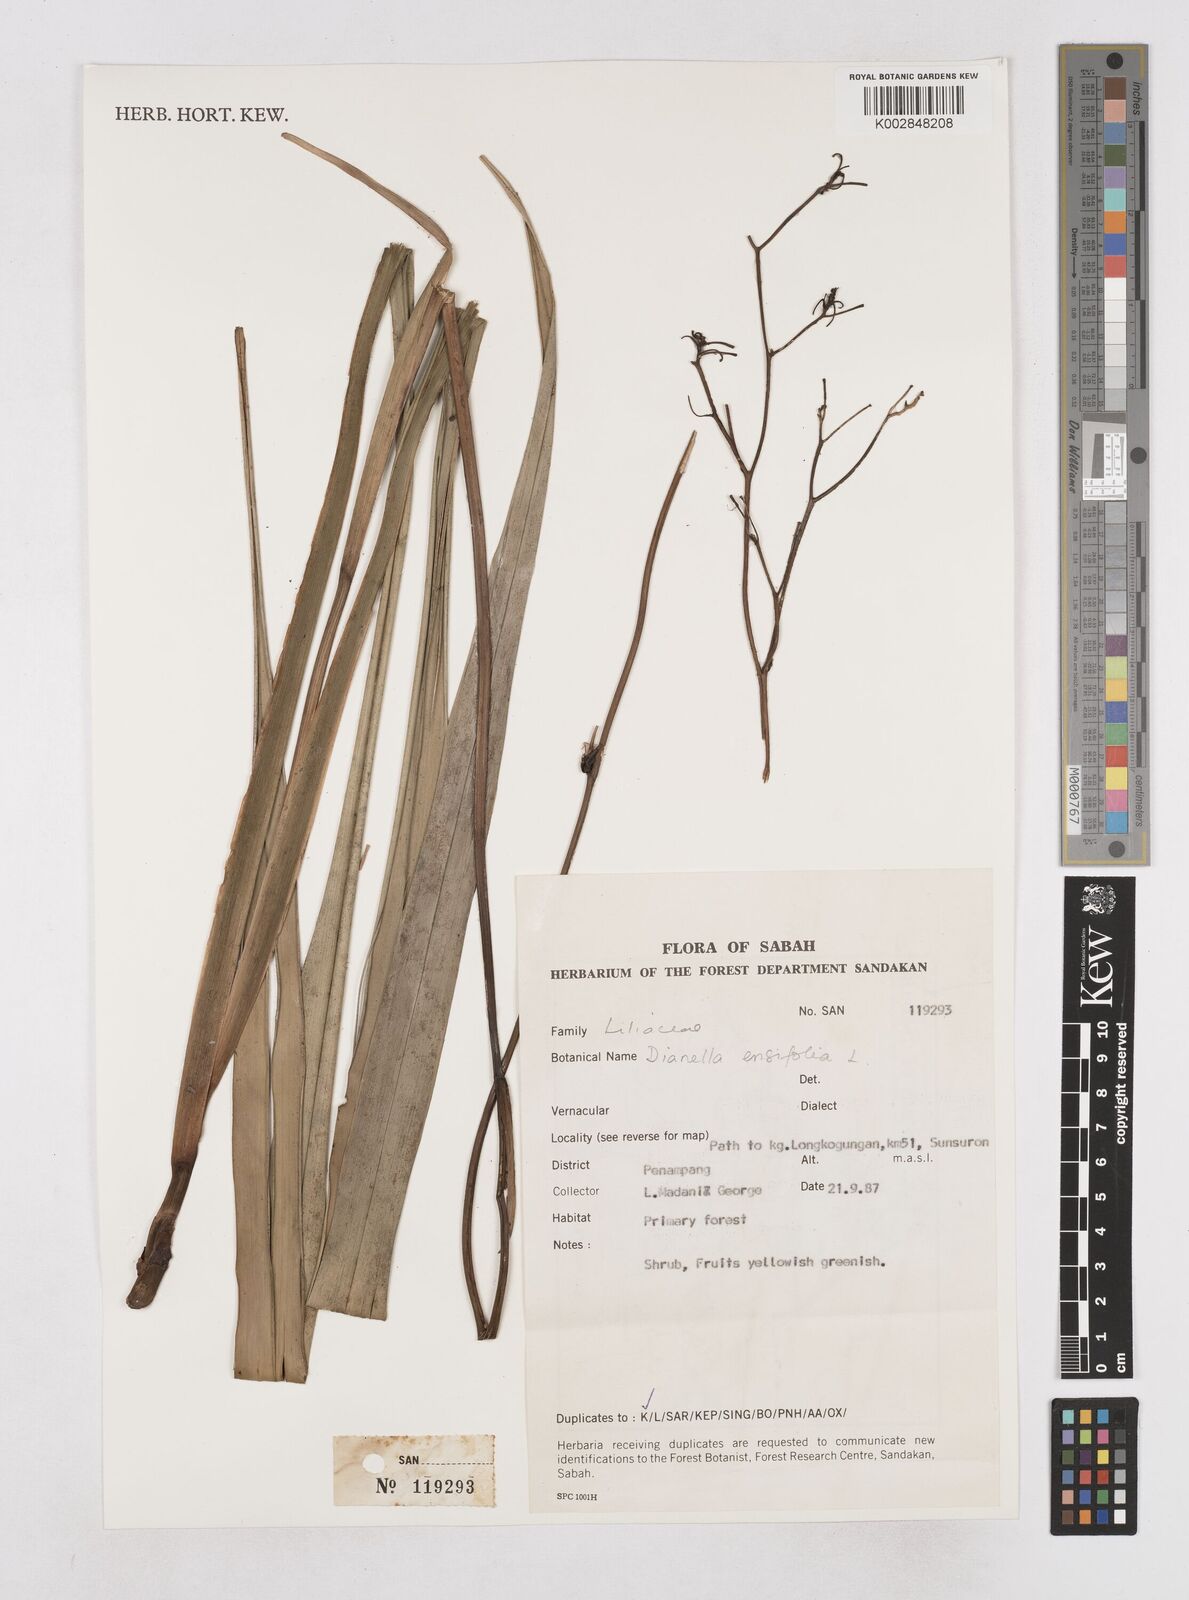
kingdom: Plantae
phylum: Tracheophyta
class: Liliopsida
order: Asparagales
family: Asphodelaceae
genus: Dianella
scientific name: Dianella ensifolia
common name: New zealand lilyplant
